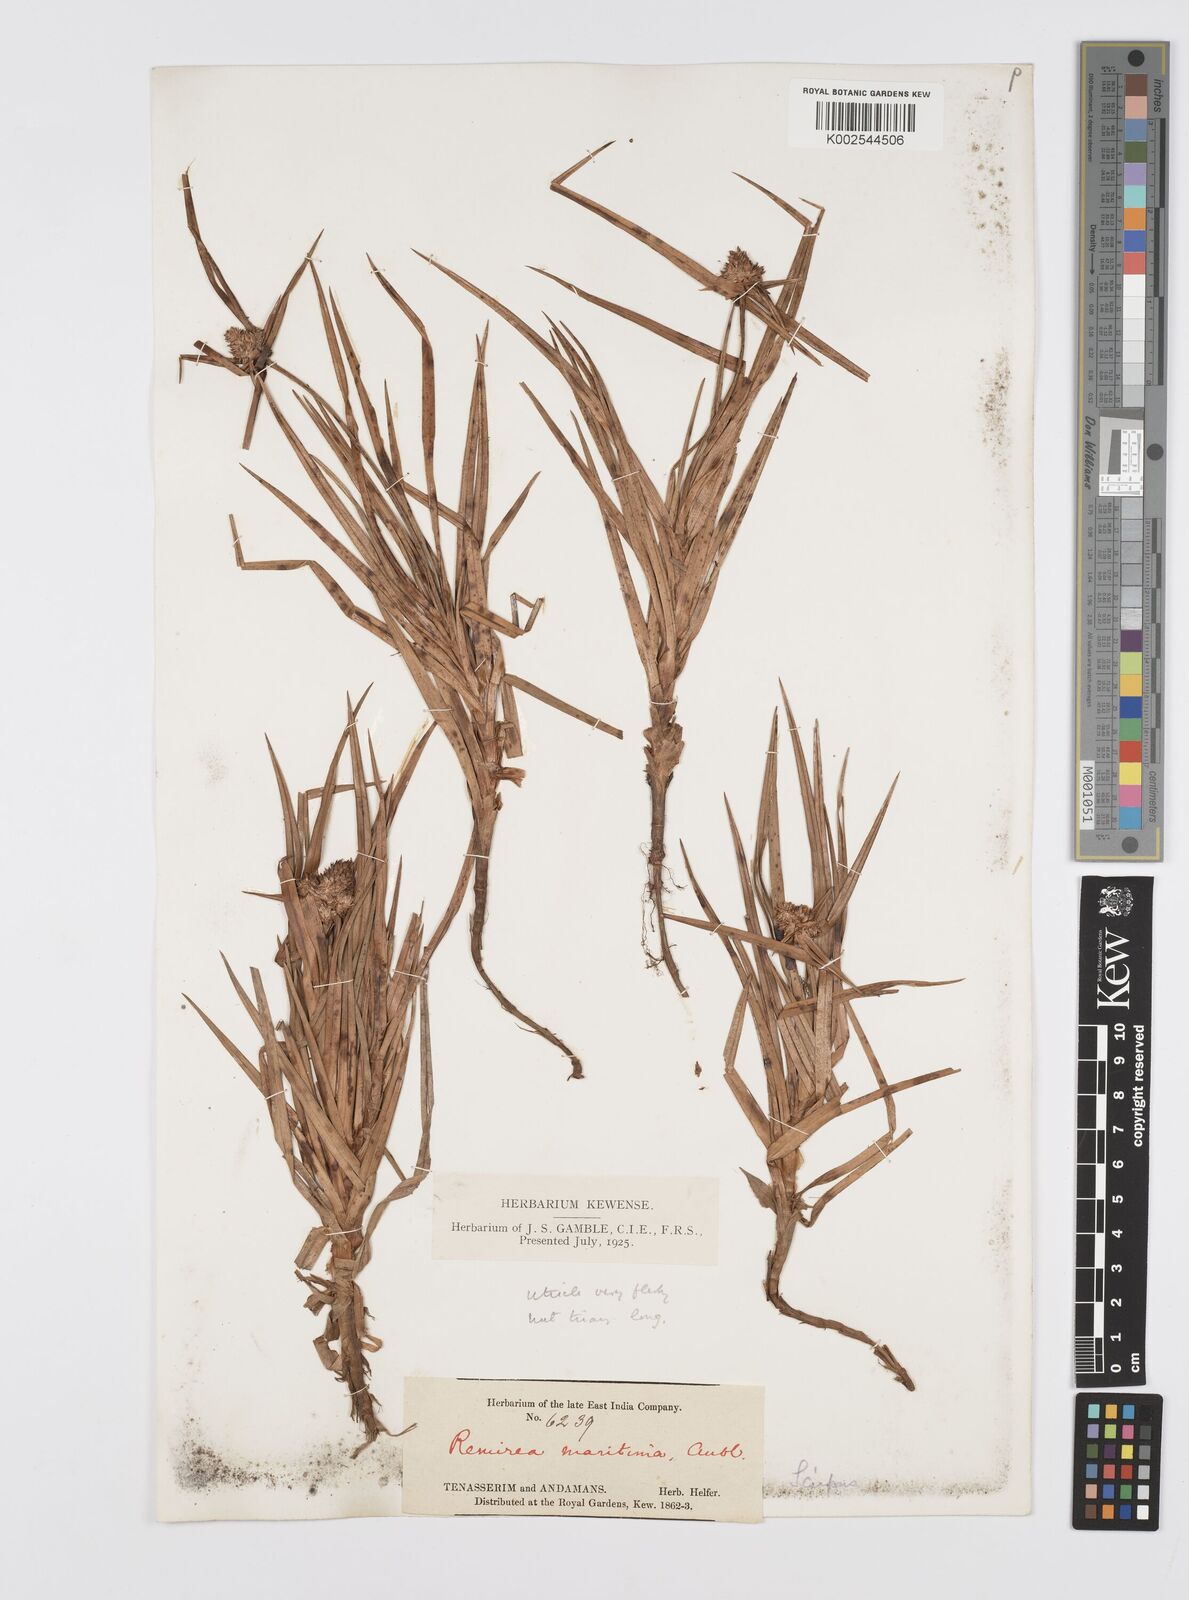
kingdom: Plantae
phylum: Tracheophyta
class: Liliopsida
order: Poales
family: Cyperaceae
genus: Cyperus
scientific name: Cyperus
